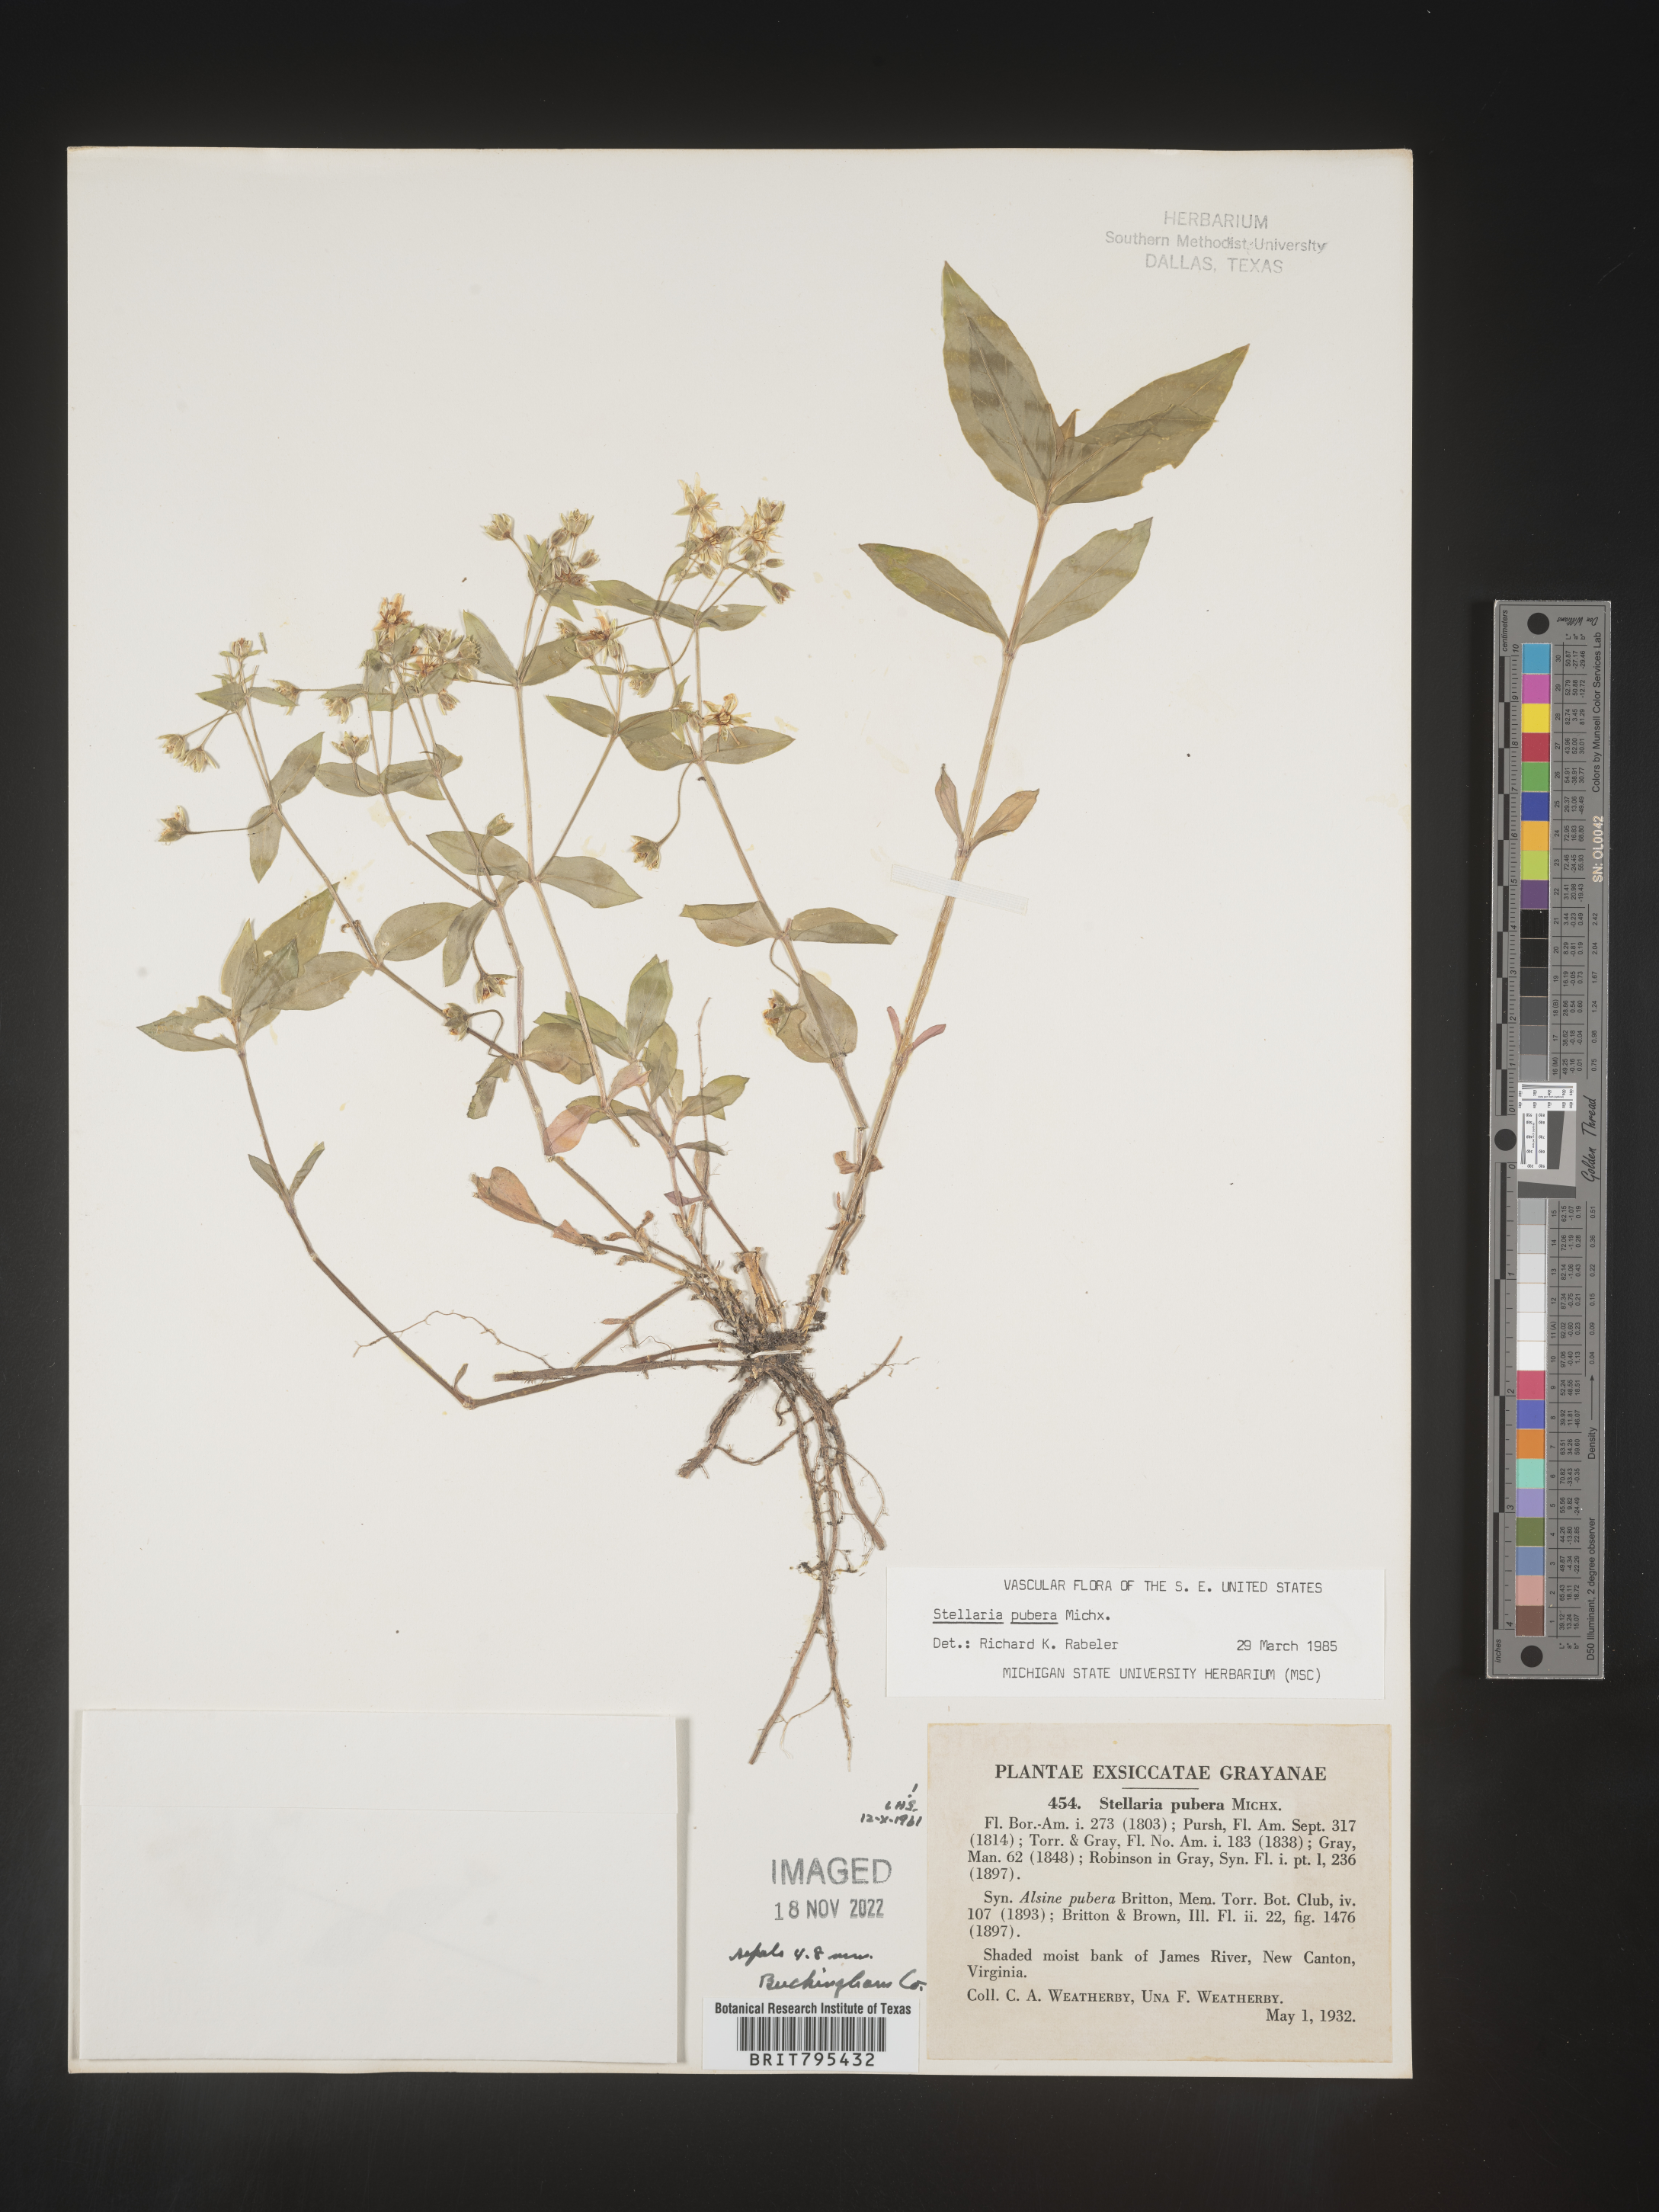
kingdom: Plantae
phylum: Tracheophyta
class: Magnoliopsida
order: Caryophyllales
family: Caryophyllaceae
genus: Stellaria
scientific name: Stellaria pubera
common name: Star chickweed
